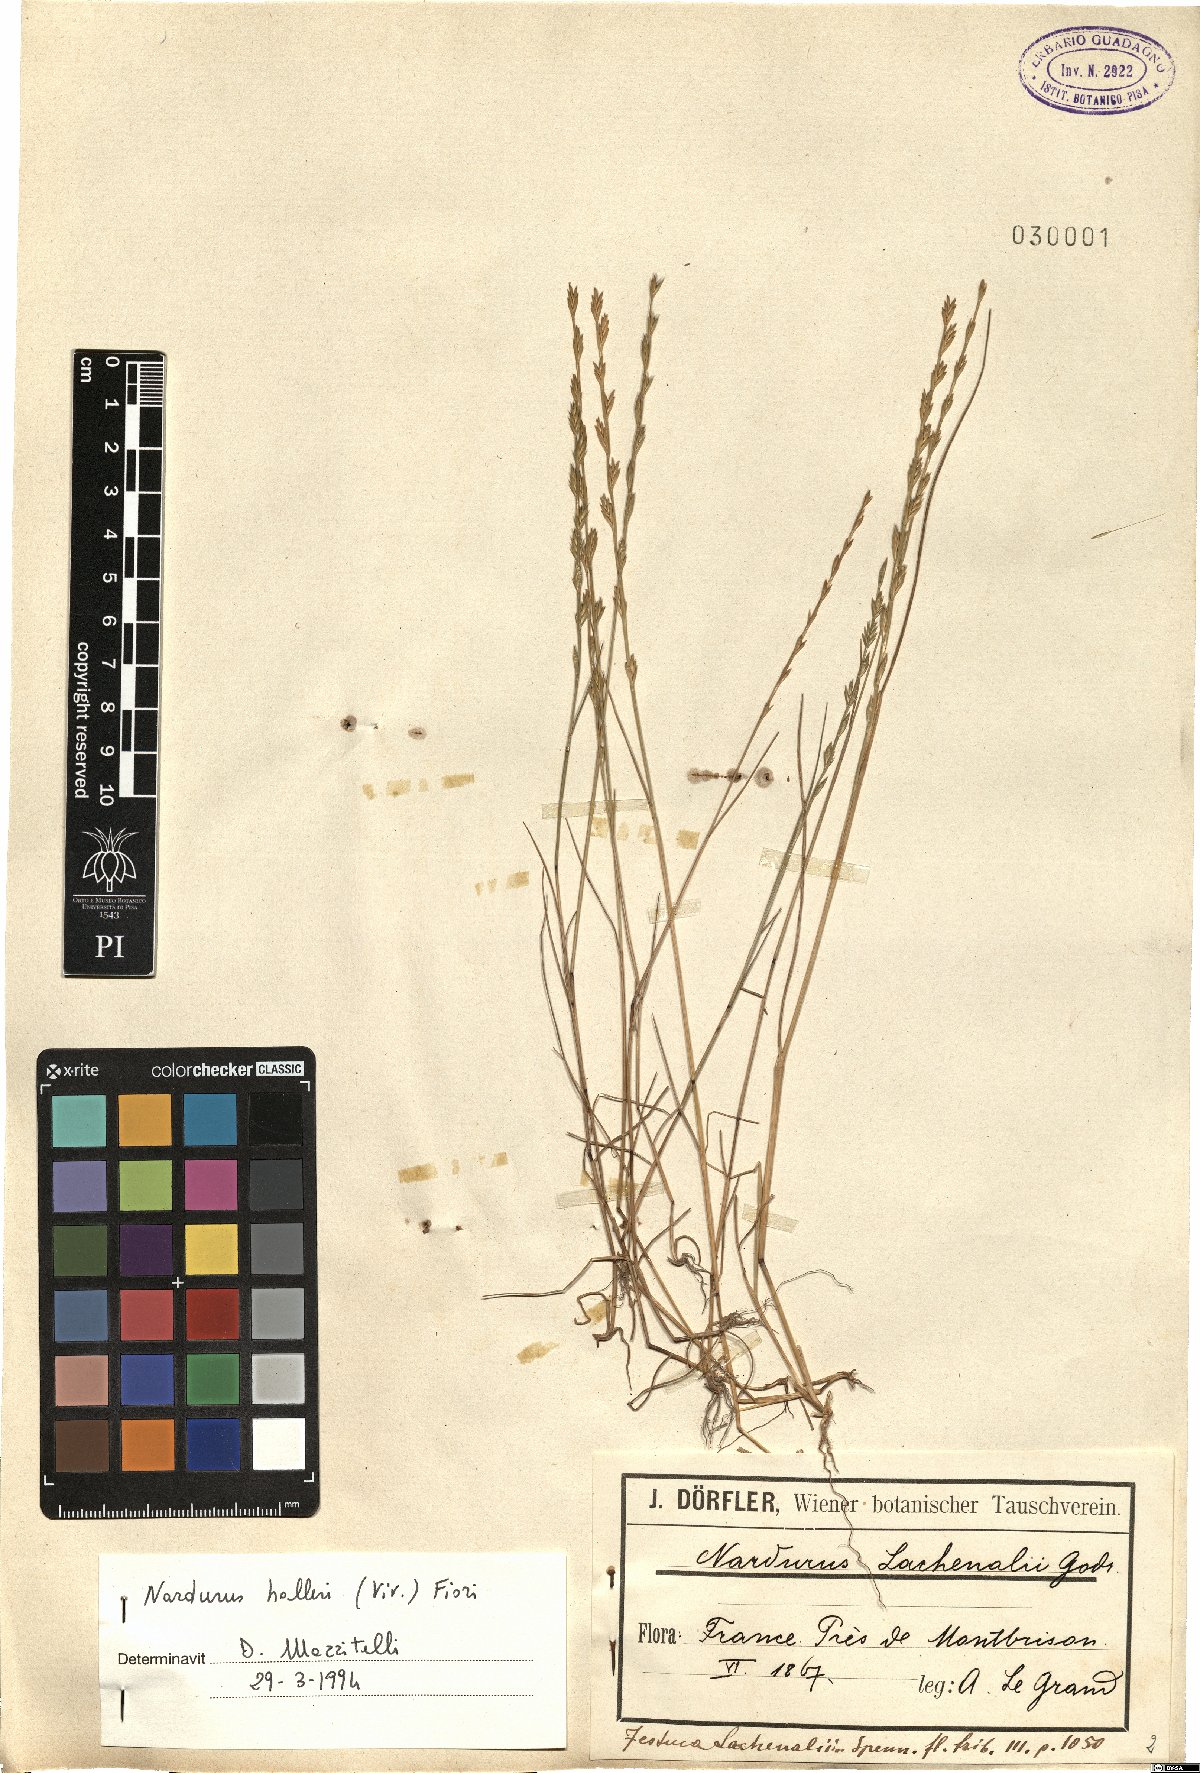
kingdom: Plantae
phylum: Tracheophyta
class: Liliopsida
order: Poales
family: Poaceae
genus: Festuca
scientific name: Festuca lachenalii
